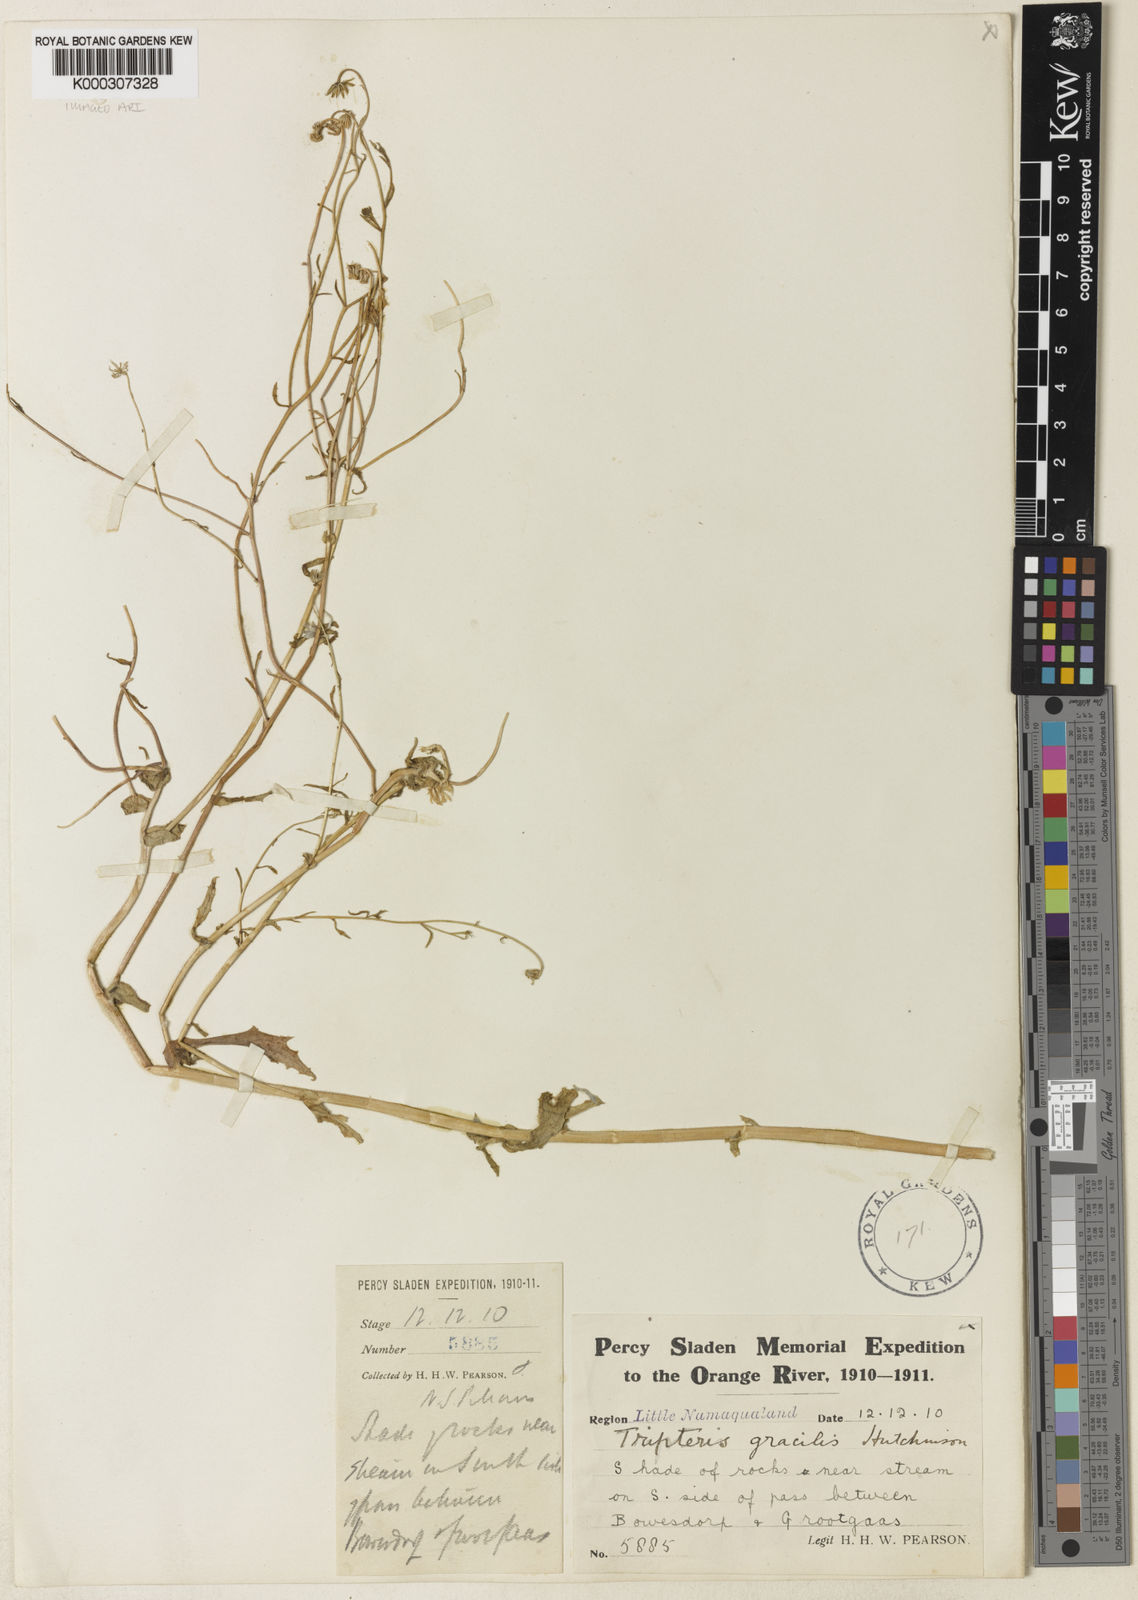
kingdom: Plantae
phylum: Tracheophyta
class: Magnoliopsida
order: Asterales
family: Asteraceae
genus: Osteospermum
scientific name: Osteospermum amplectens
